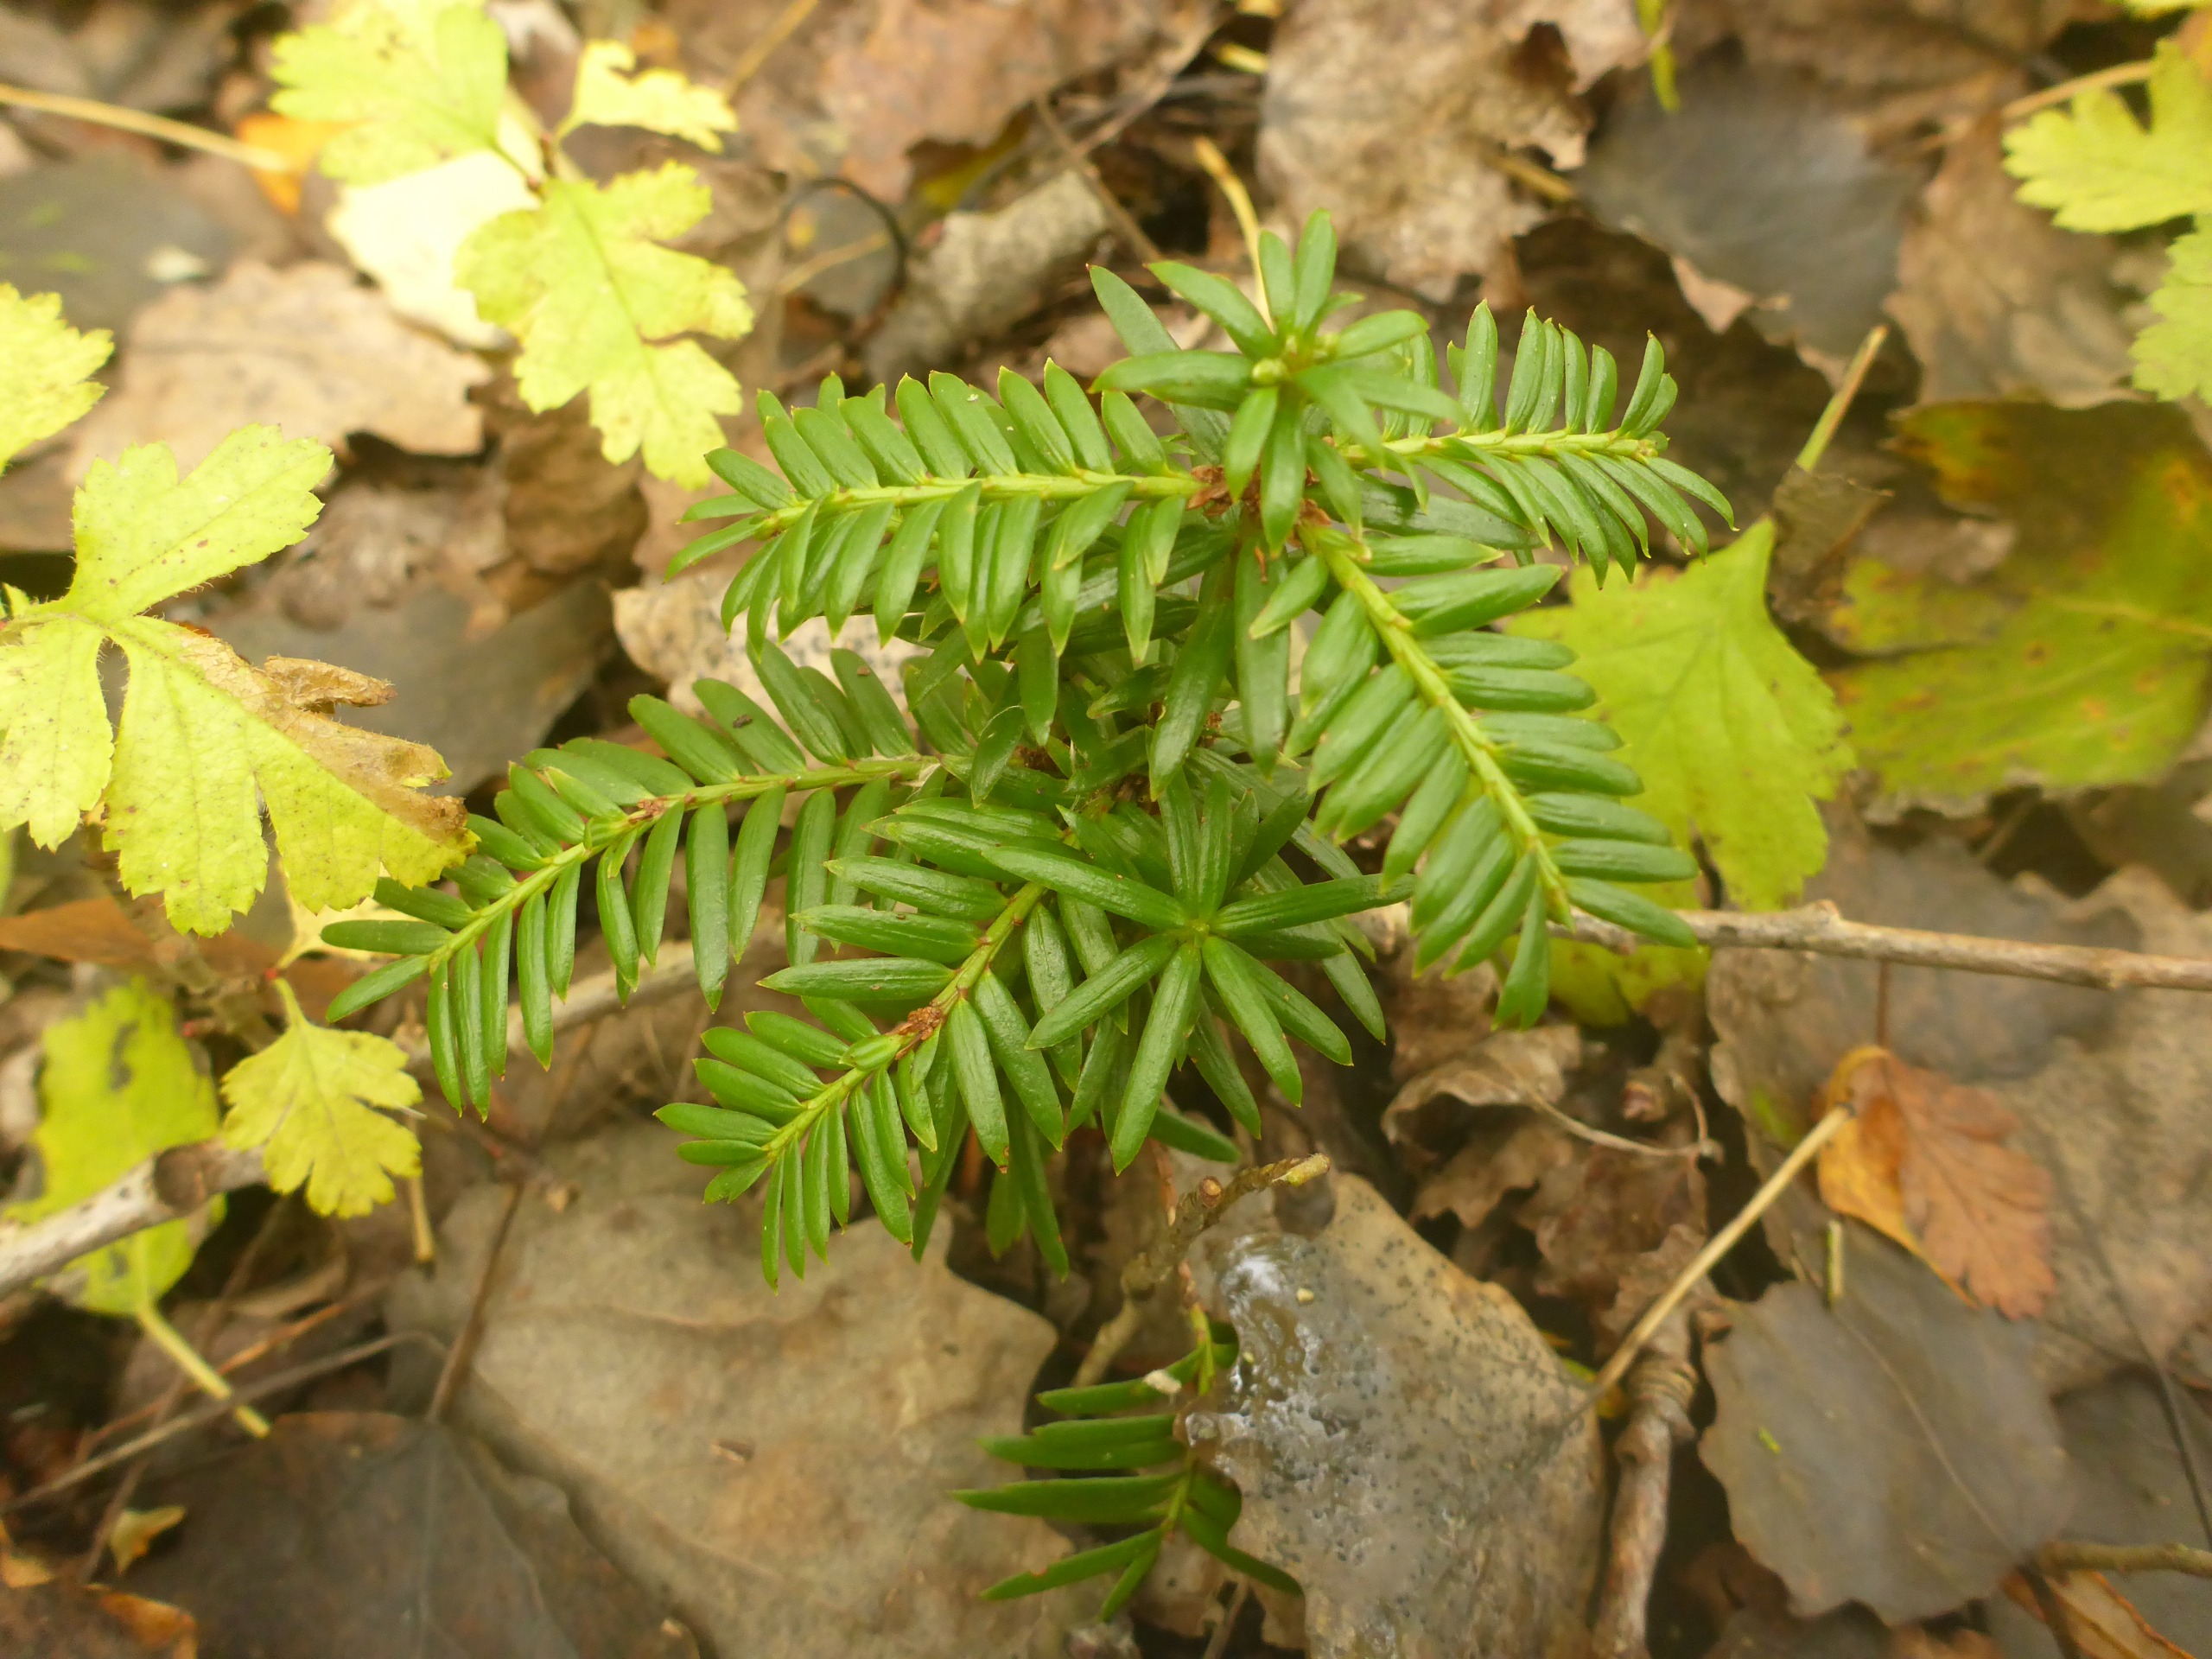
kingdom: Plantae
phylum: Tracheophyta
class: Pinopsida
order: Pinales
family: Taxaceae
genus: Taxus
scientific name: Taxus baccata
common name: Almindelig taks
